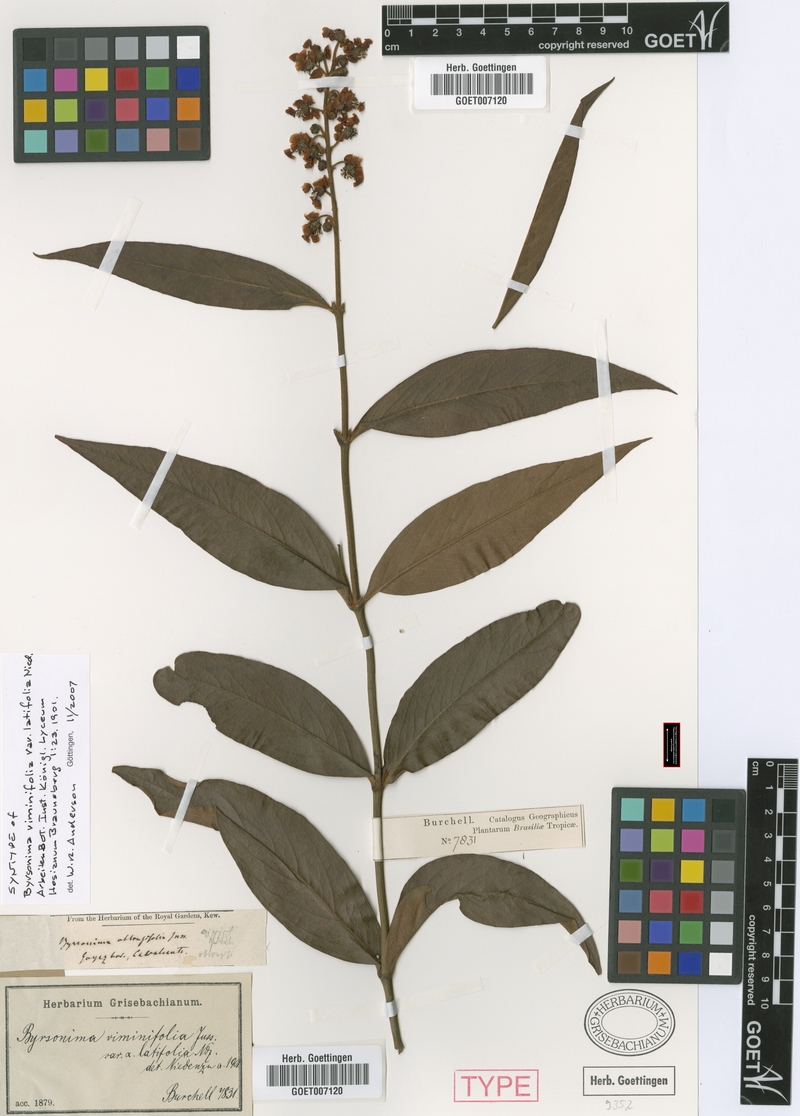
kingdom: Plantae
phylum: Tracheophyta
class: Magnoliopsida
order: Malpighiales
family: Malpighiaceae
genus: Byrsonima
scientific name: Byrsonima viminifolia
